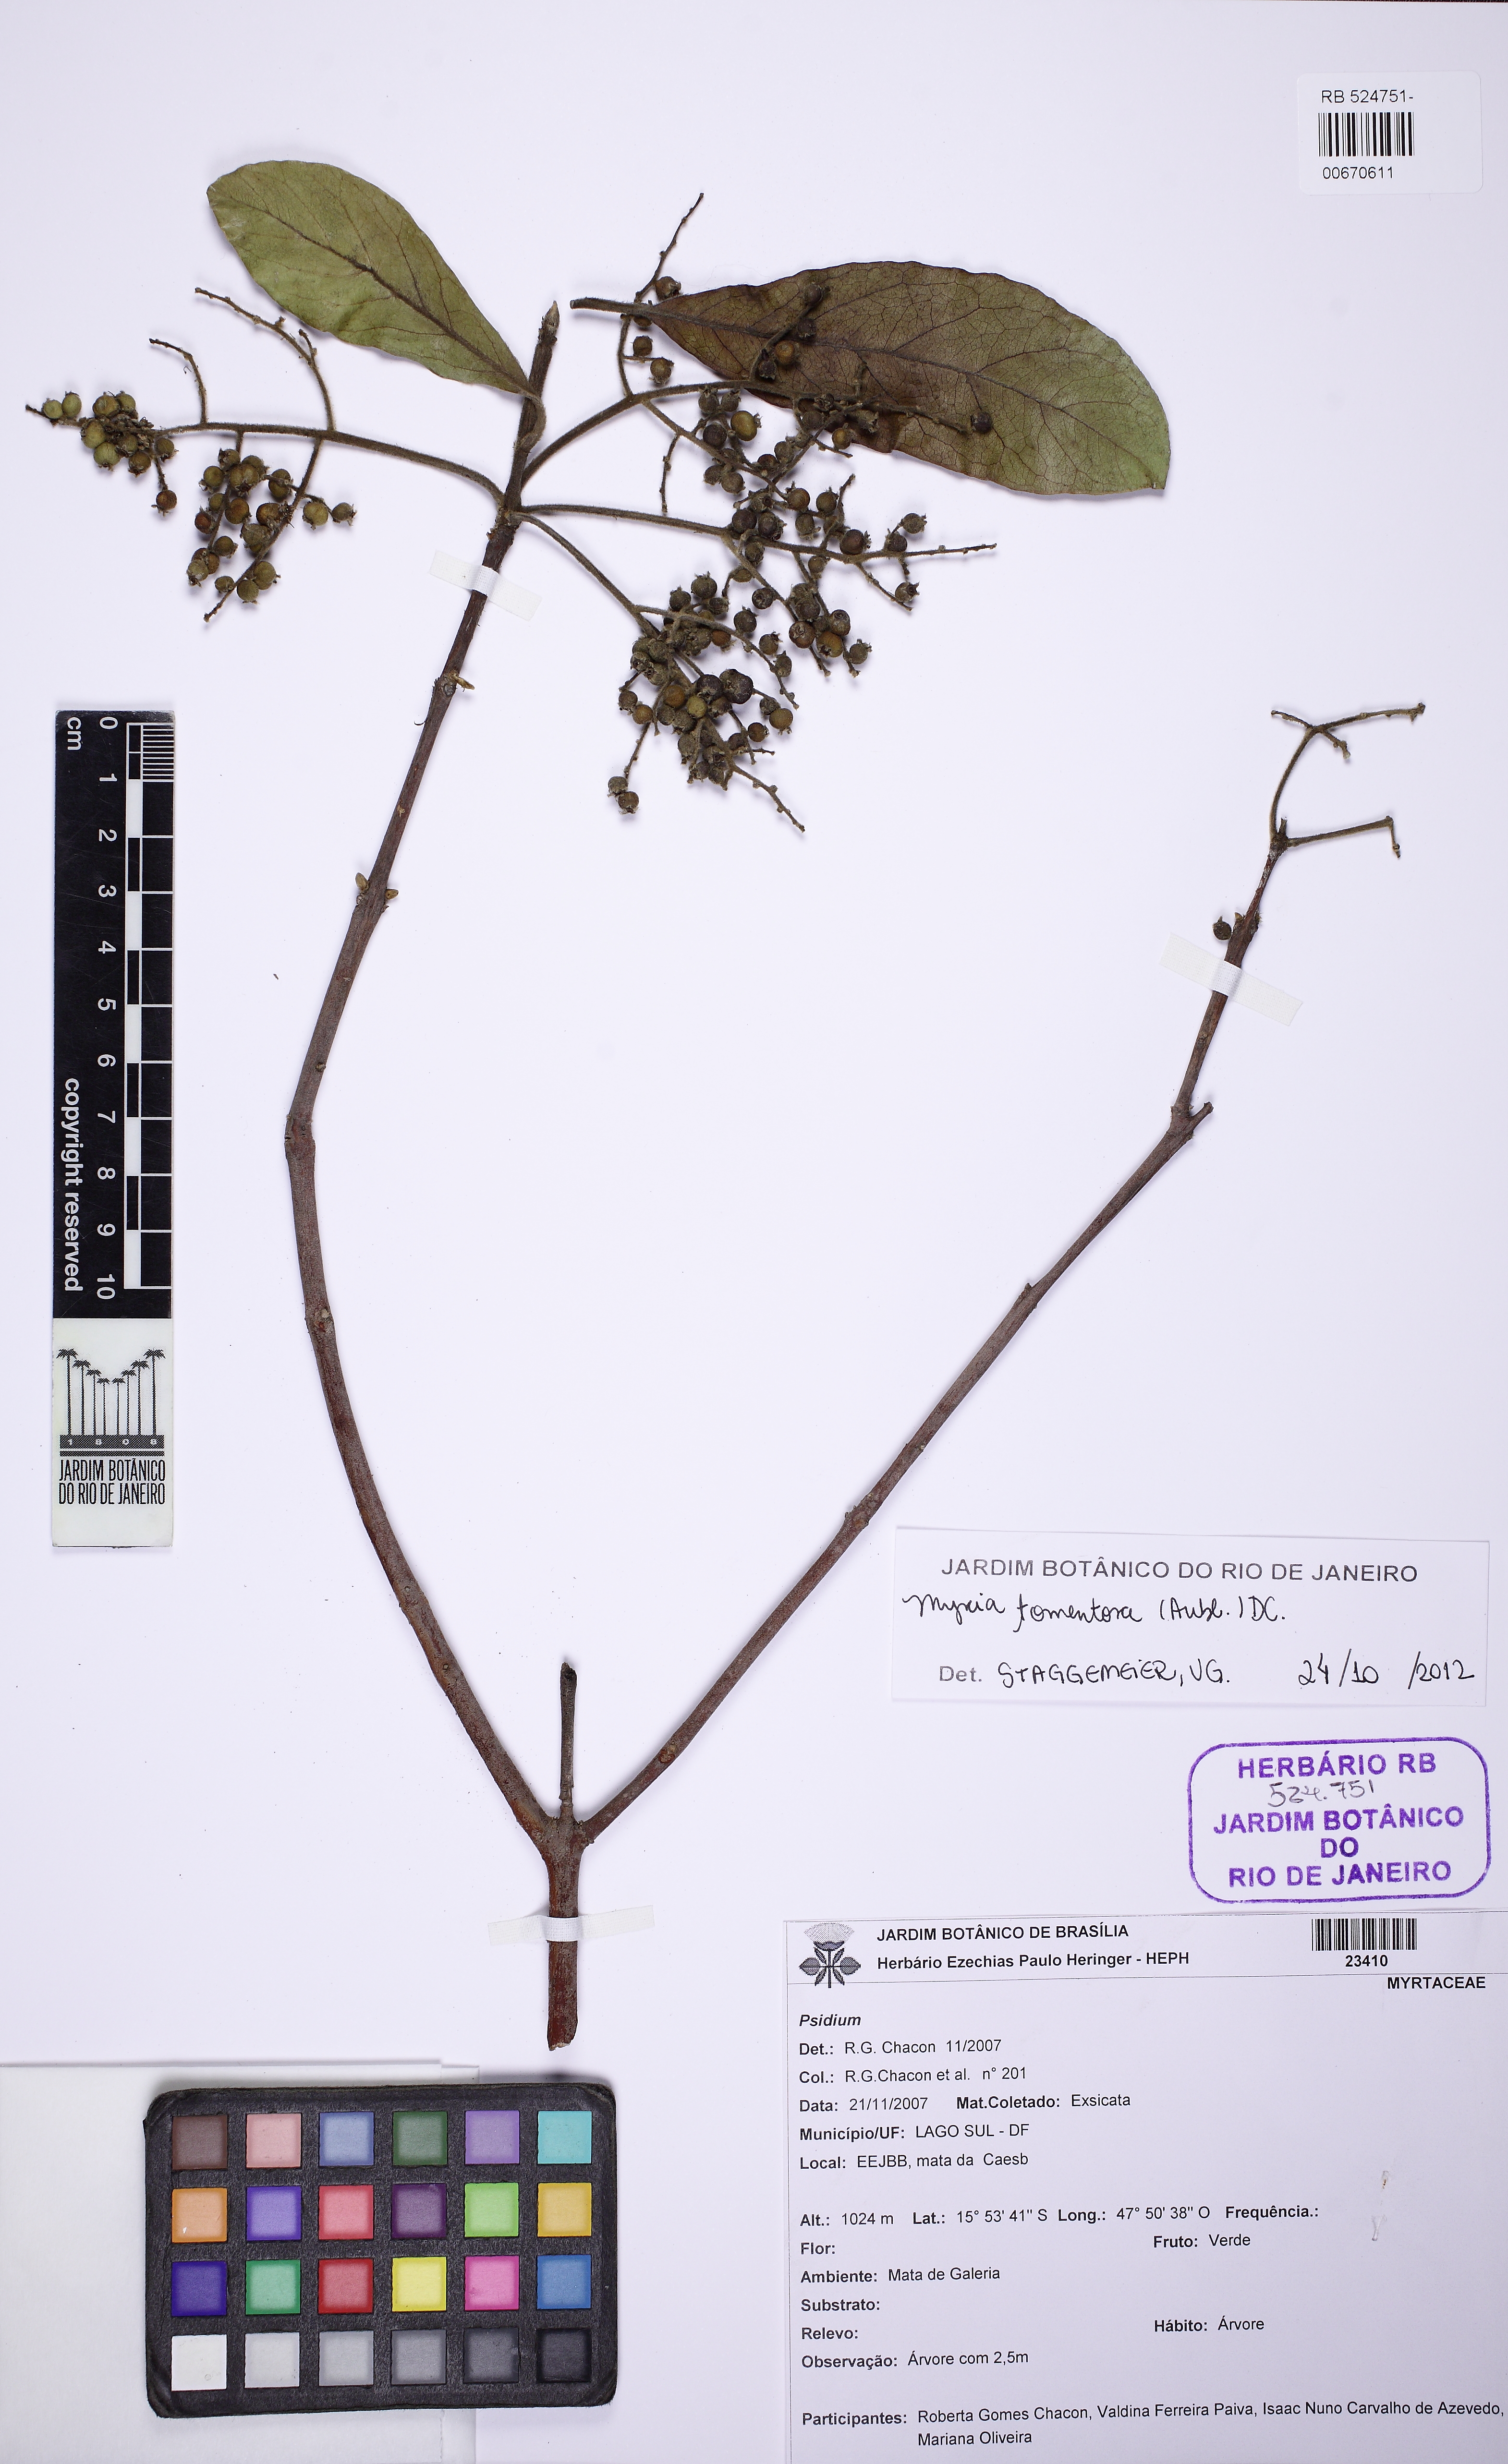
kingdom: Plantae
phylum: Tracheophyta
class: Magnoliopsida
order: Myrtales
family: Myrtaceae
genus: Myrcia
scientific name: Myrcia tomentosa
